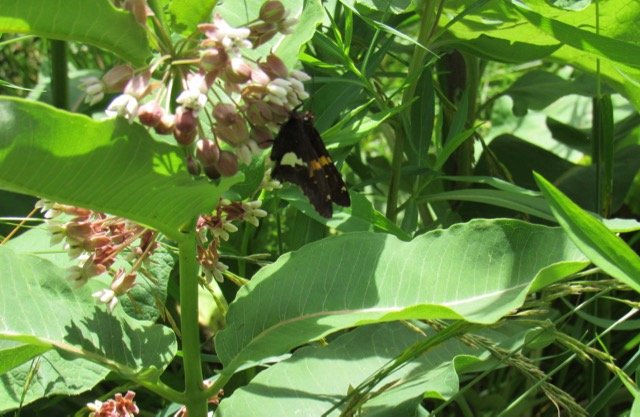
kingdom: Animalia
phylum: Arthropoda
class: Insecta
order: Lepidoptera
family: Hesperiidae
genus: Epargyreus
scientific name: Epargyreus clarus
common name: Silver-spotted Skipper
